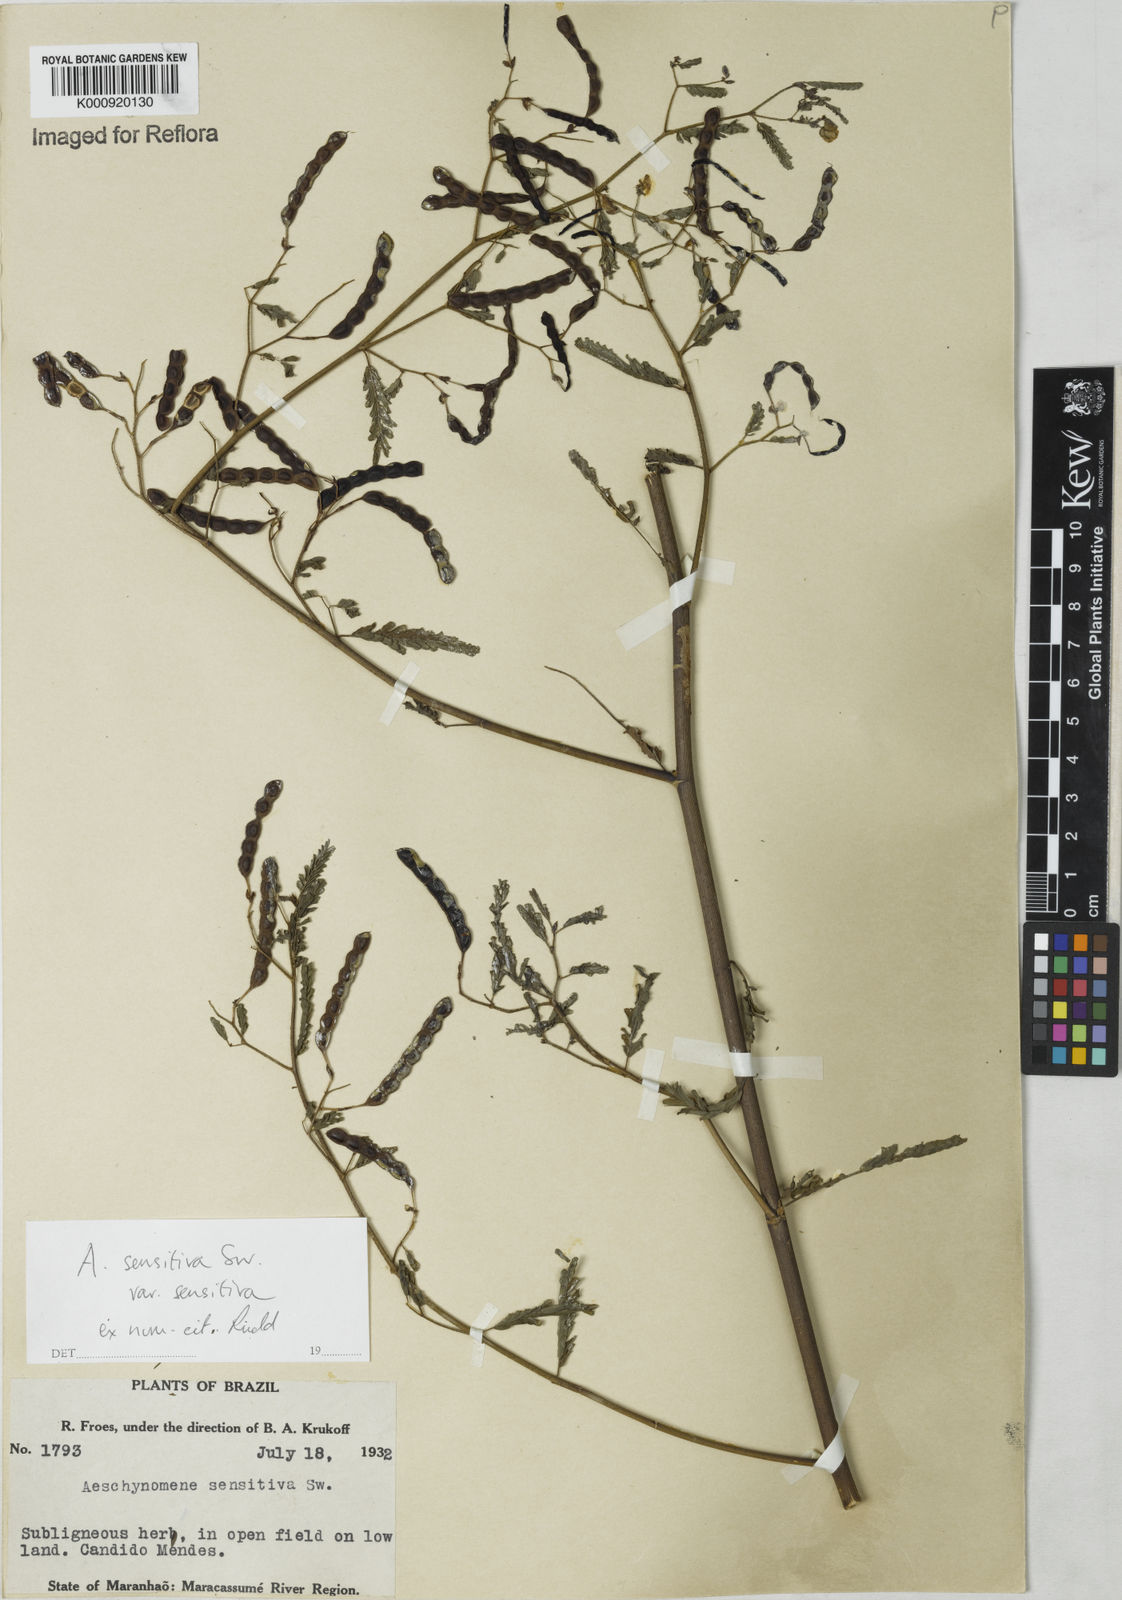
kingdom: Plantae
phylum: Tracheophyta
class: Magnoliopsida
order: Fabales
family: Fabaceae
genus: Aeschynomene
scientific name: Aeschynomene sensitiva
